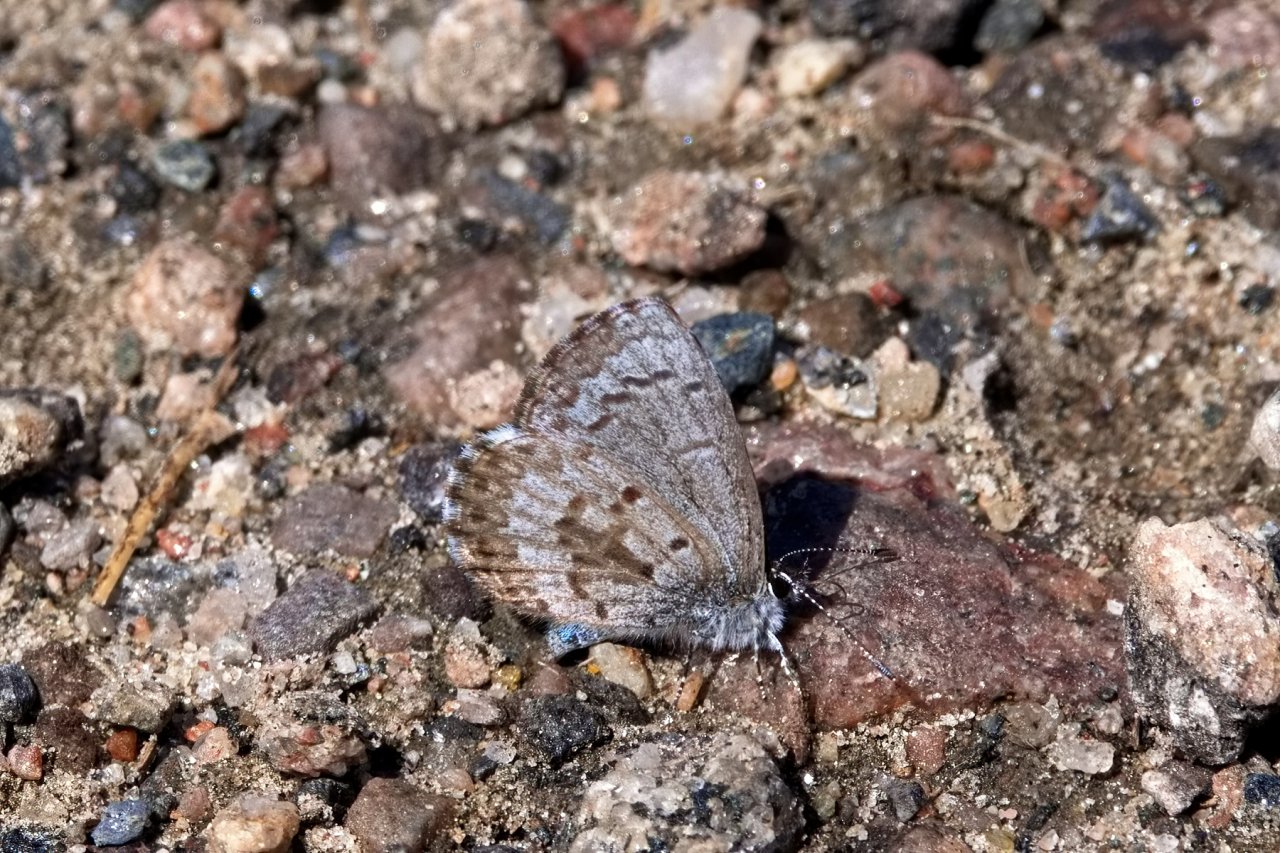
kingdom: Animalia
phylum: Arthropoda
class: Insecta
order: Lepidoptera
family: Lycaenidae
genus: Celastrina
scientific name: Celastrina lucia
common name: Northern Spring Azure
